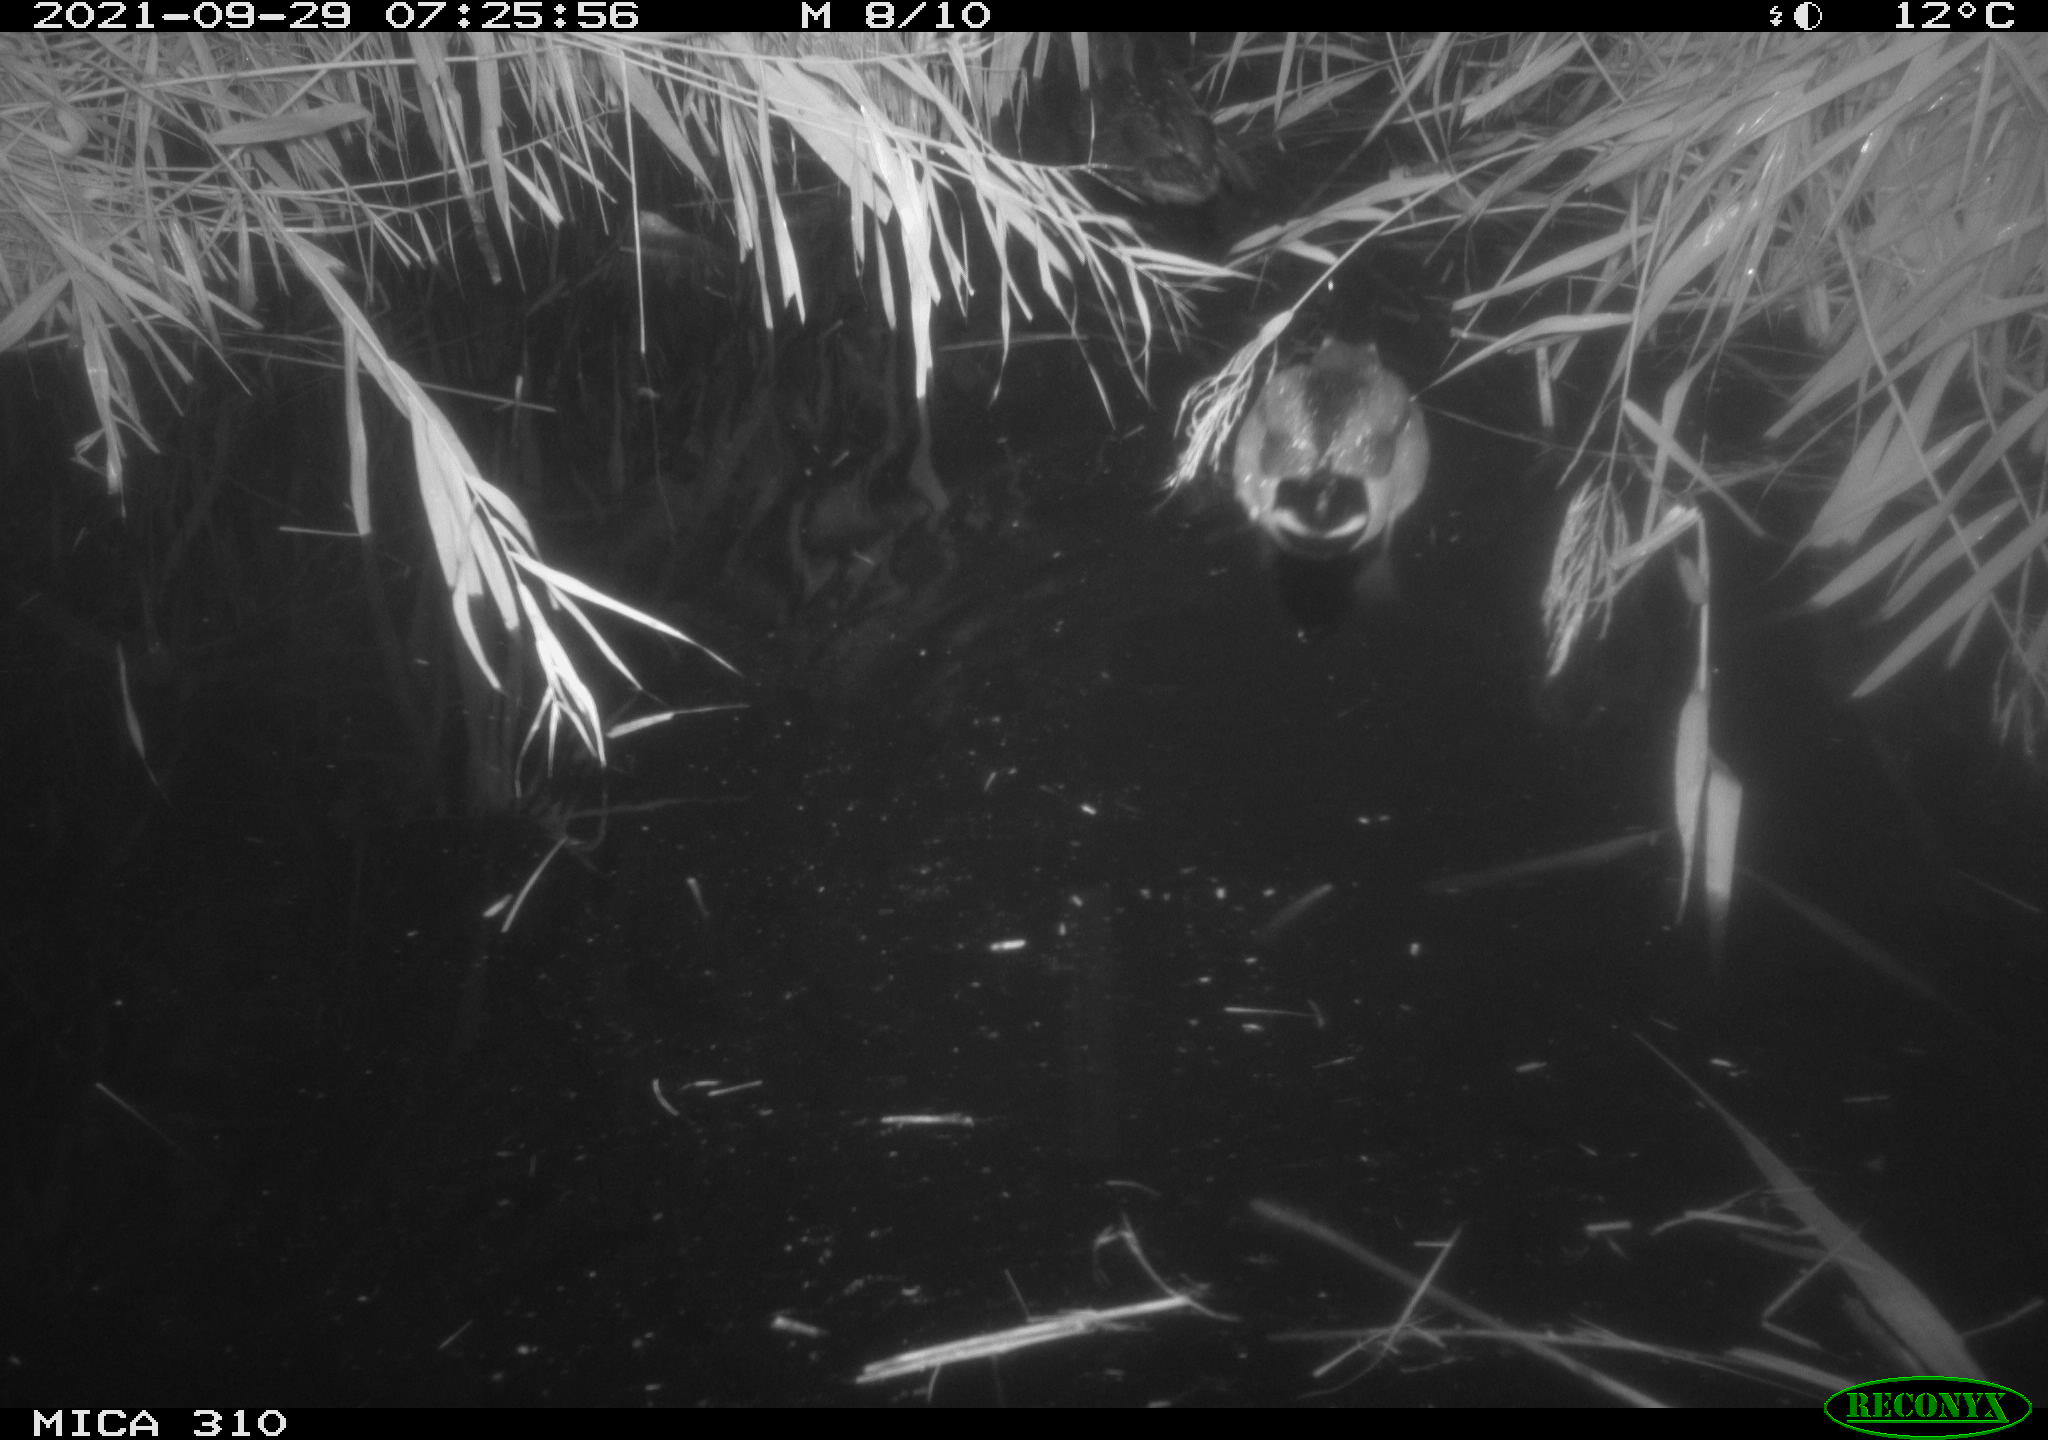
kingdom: Animalia
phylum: Chordata
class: Aves
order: Anseriformes
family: Anatidae
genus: Anas
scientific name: Anas platyrhynchos
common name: Mallard
